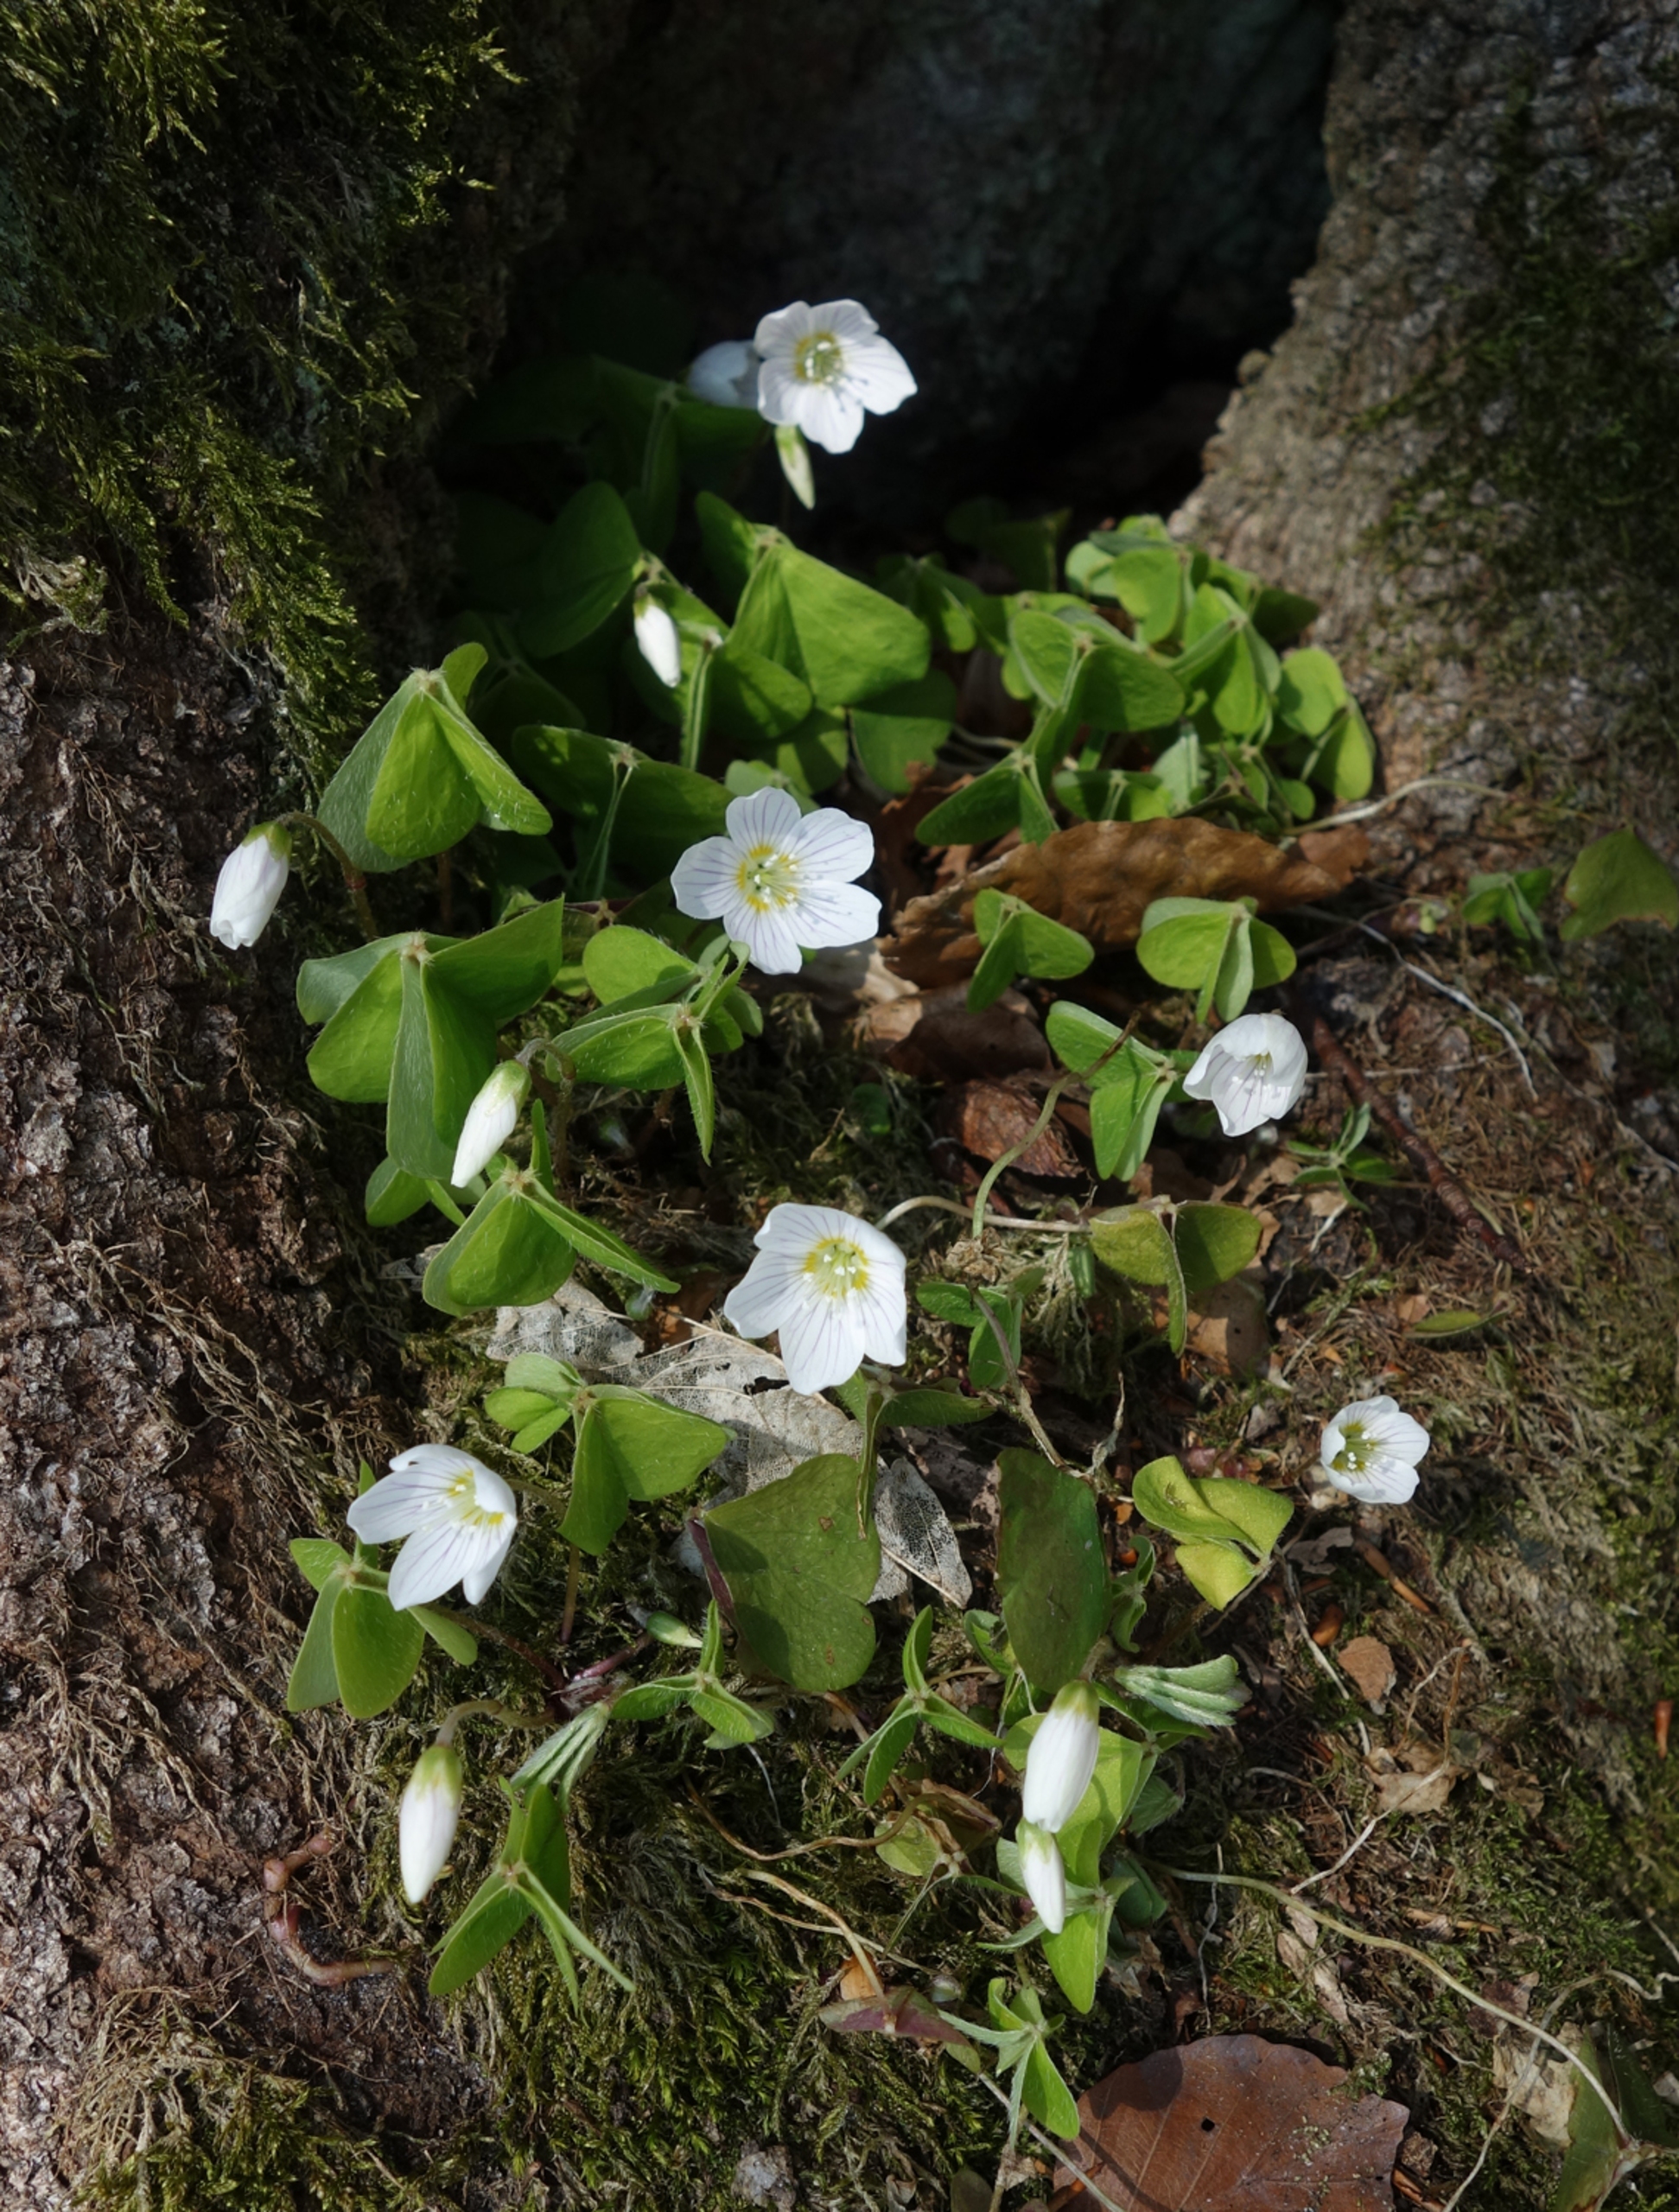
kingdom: Plantae
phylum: Tracheophyta
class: Magnoliopsida
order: Oxalidales
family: Oxalidaceae
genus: Oxalis
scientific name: Oxalis acetosella
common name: Skovsyre
